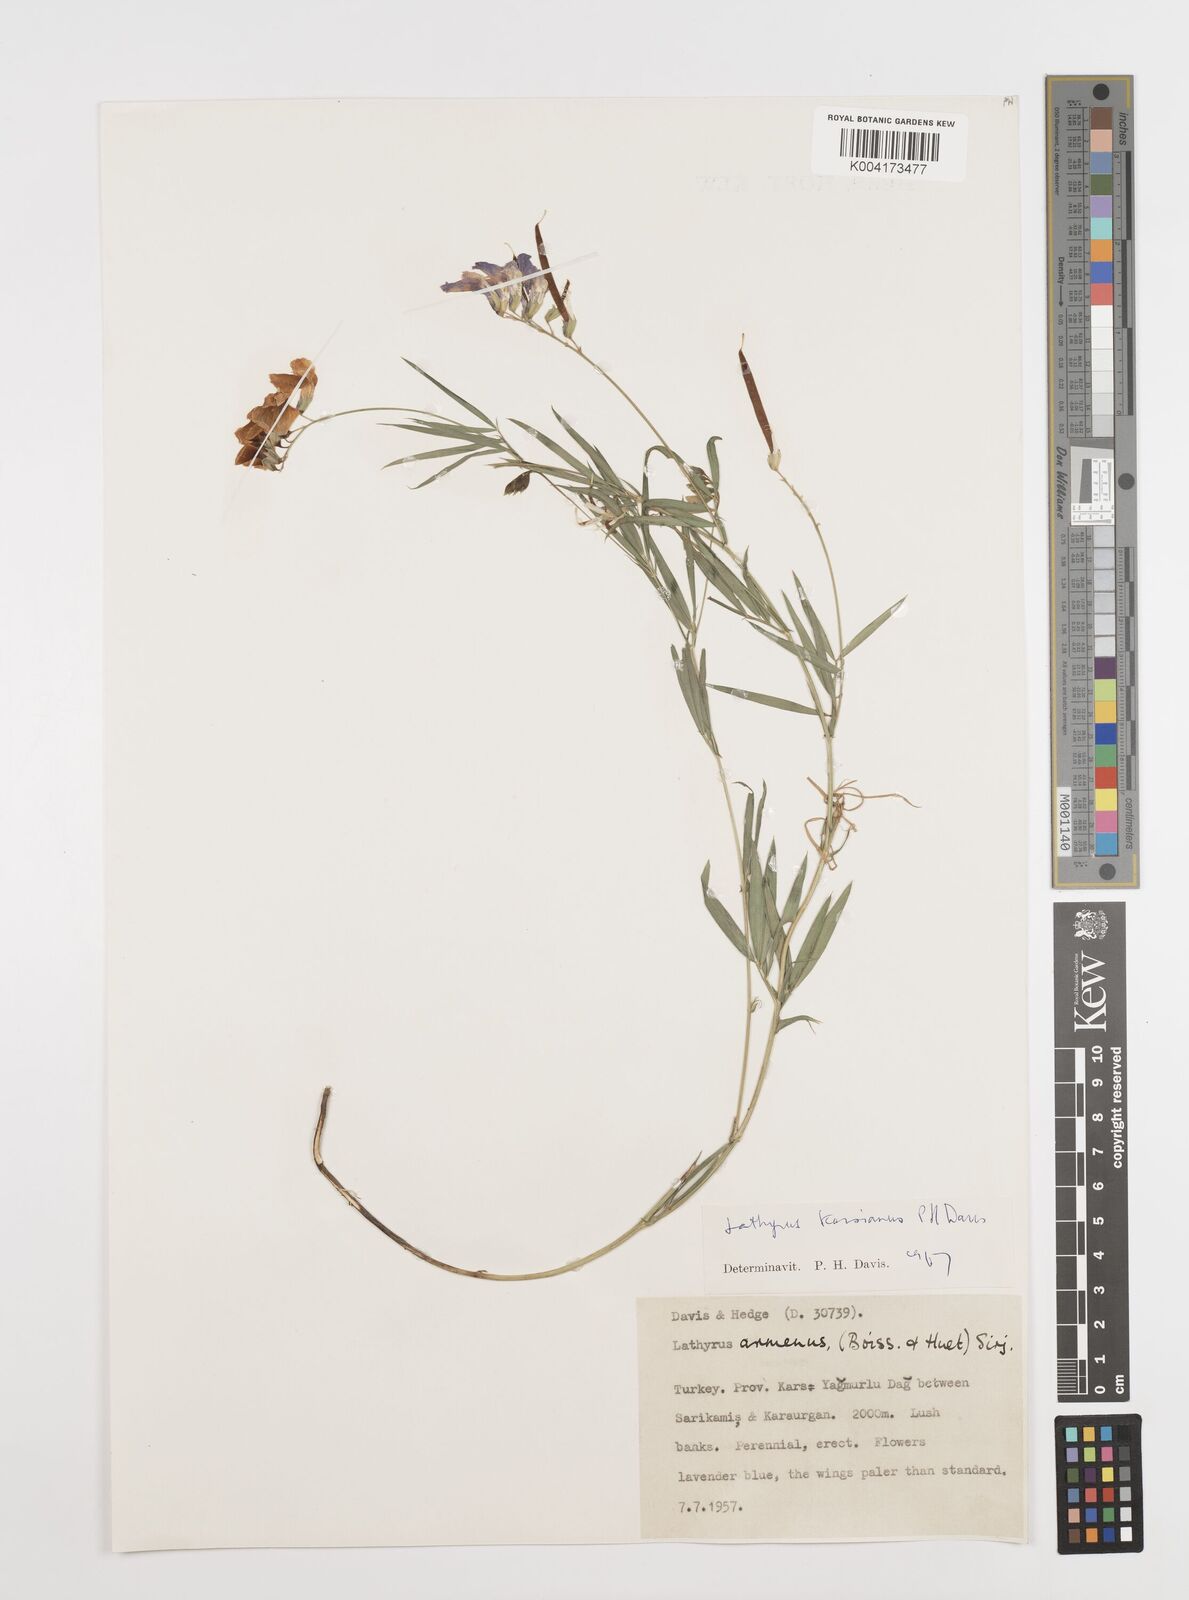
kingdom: Plantae
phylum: Tracheophyta
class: Magnoliopsida
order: Fabales
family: Fabaceae
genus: Lathyrus
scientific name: Lathyrus karsianus
